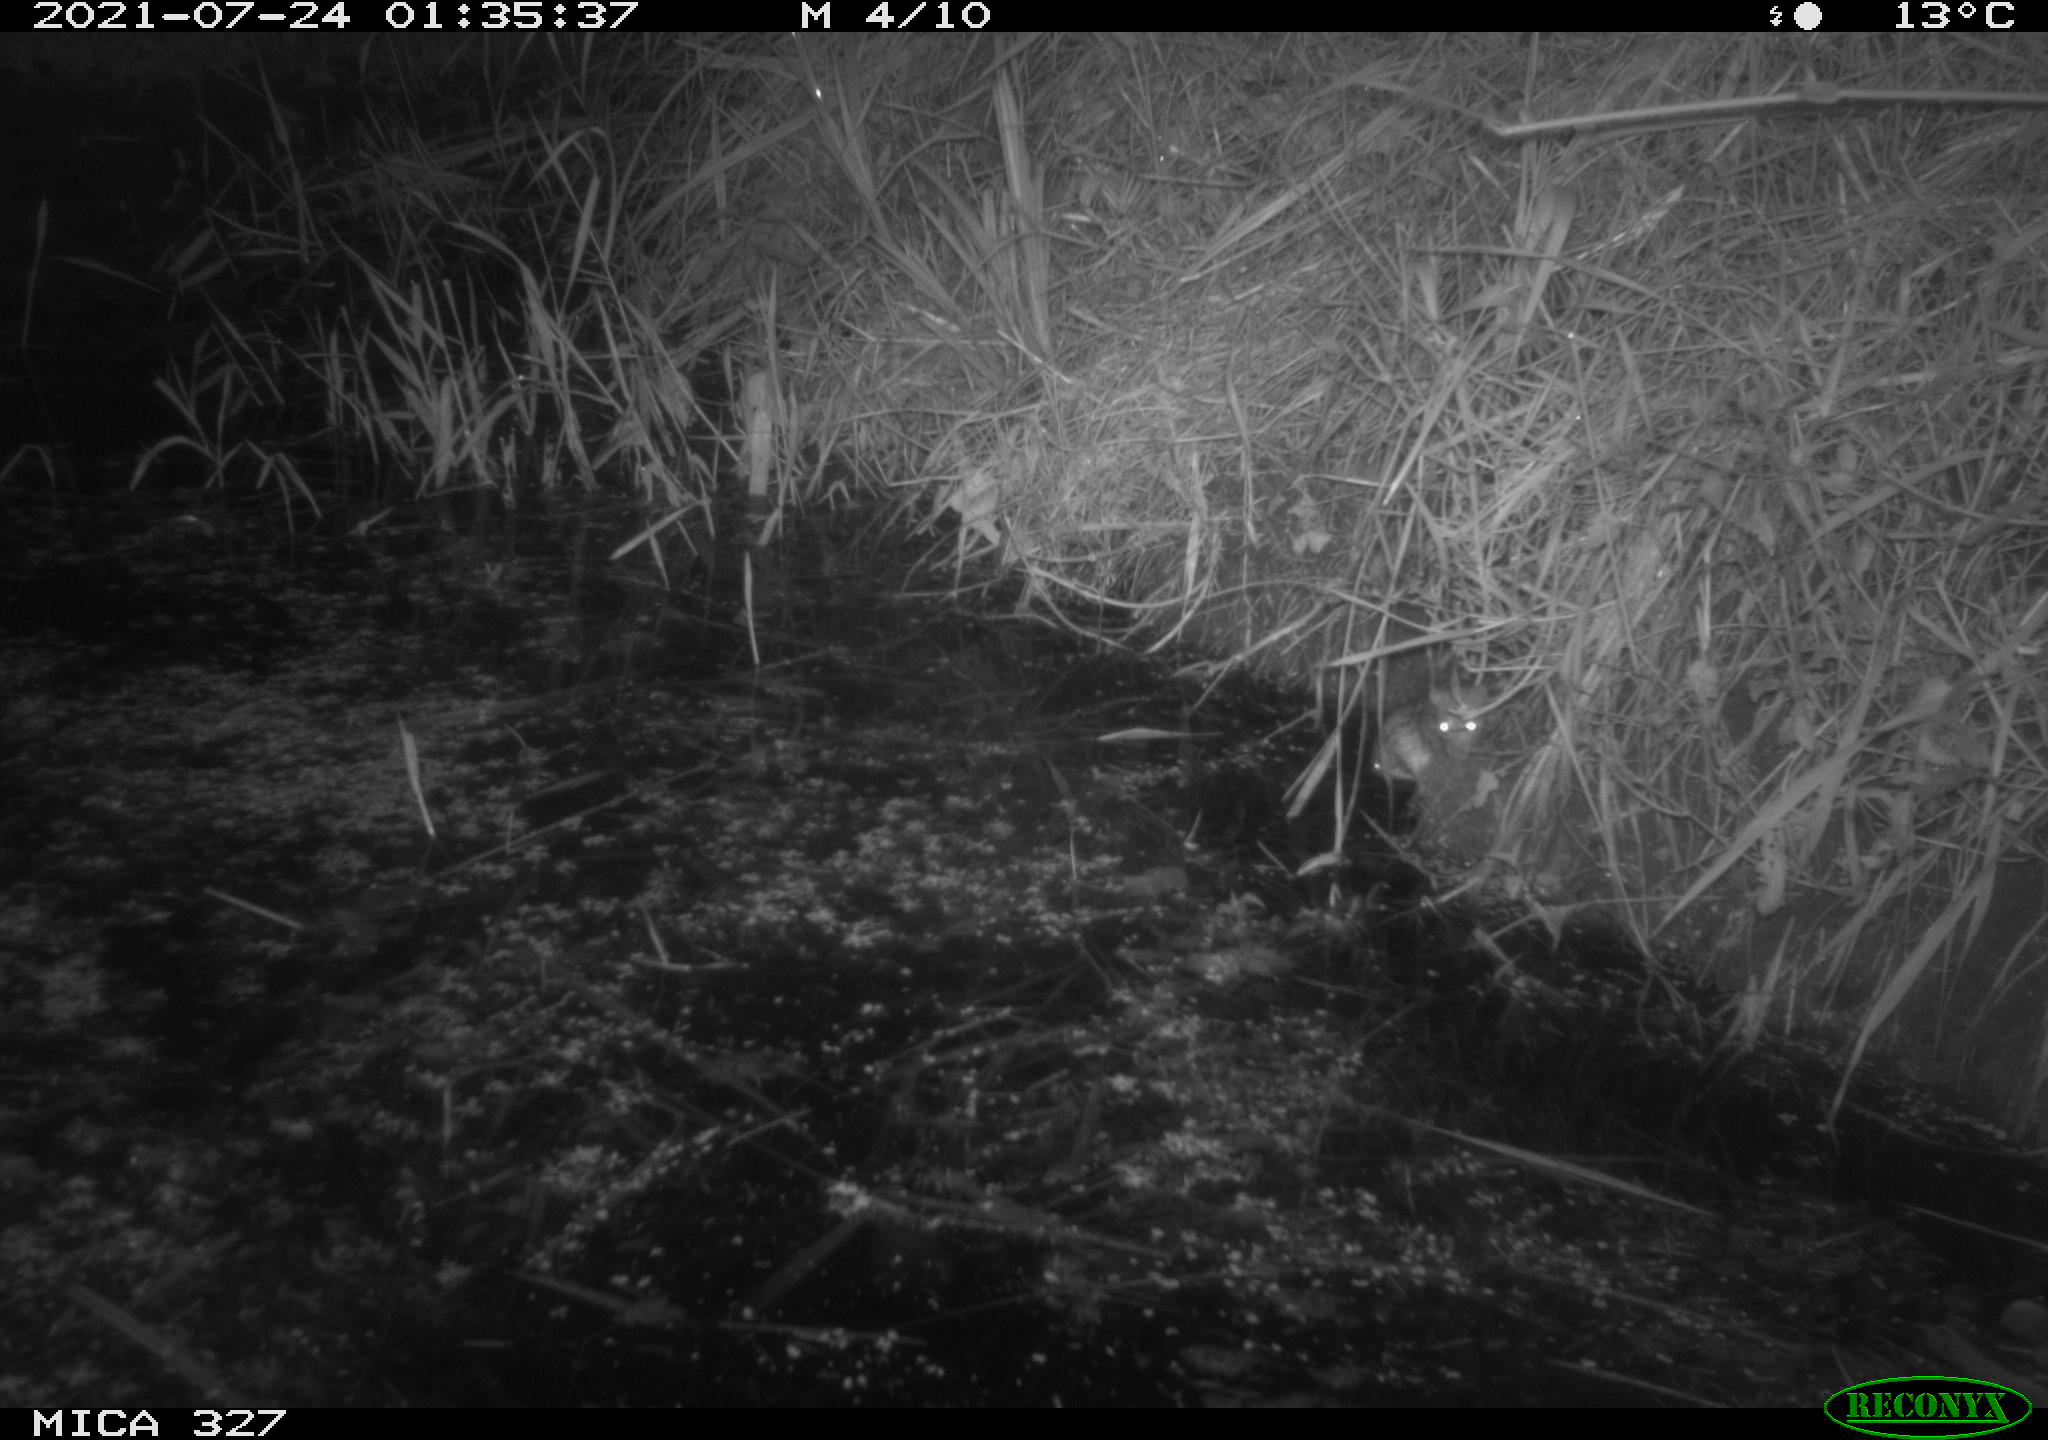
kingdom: Animalia
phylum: Chordata
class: Mammalia
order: Rodentia
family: Muridae
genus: Rattus
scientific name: Rattus norvegicus
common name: Brown rat
